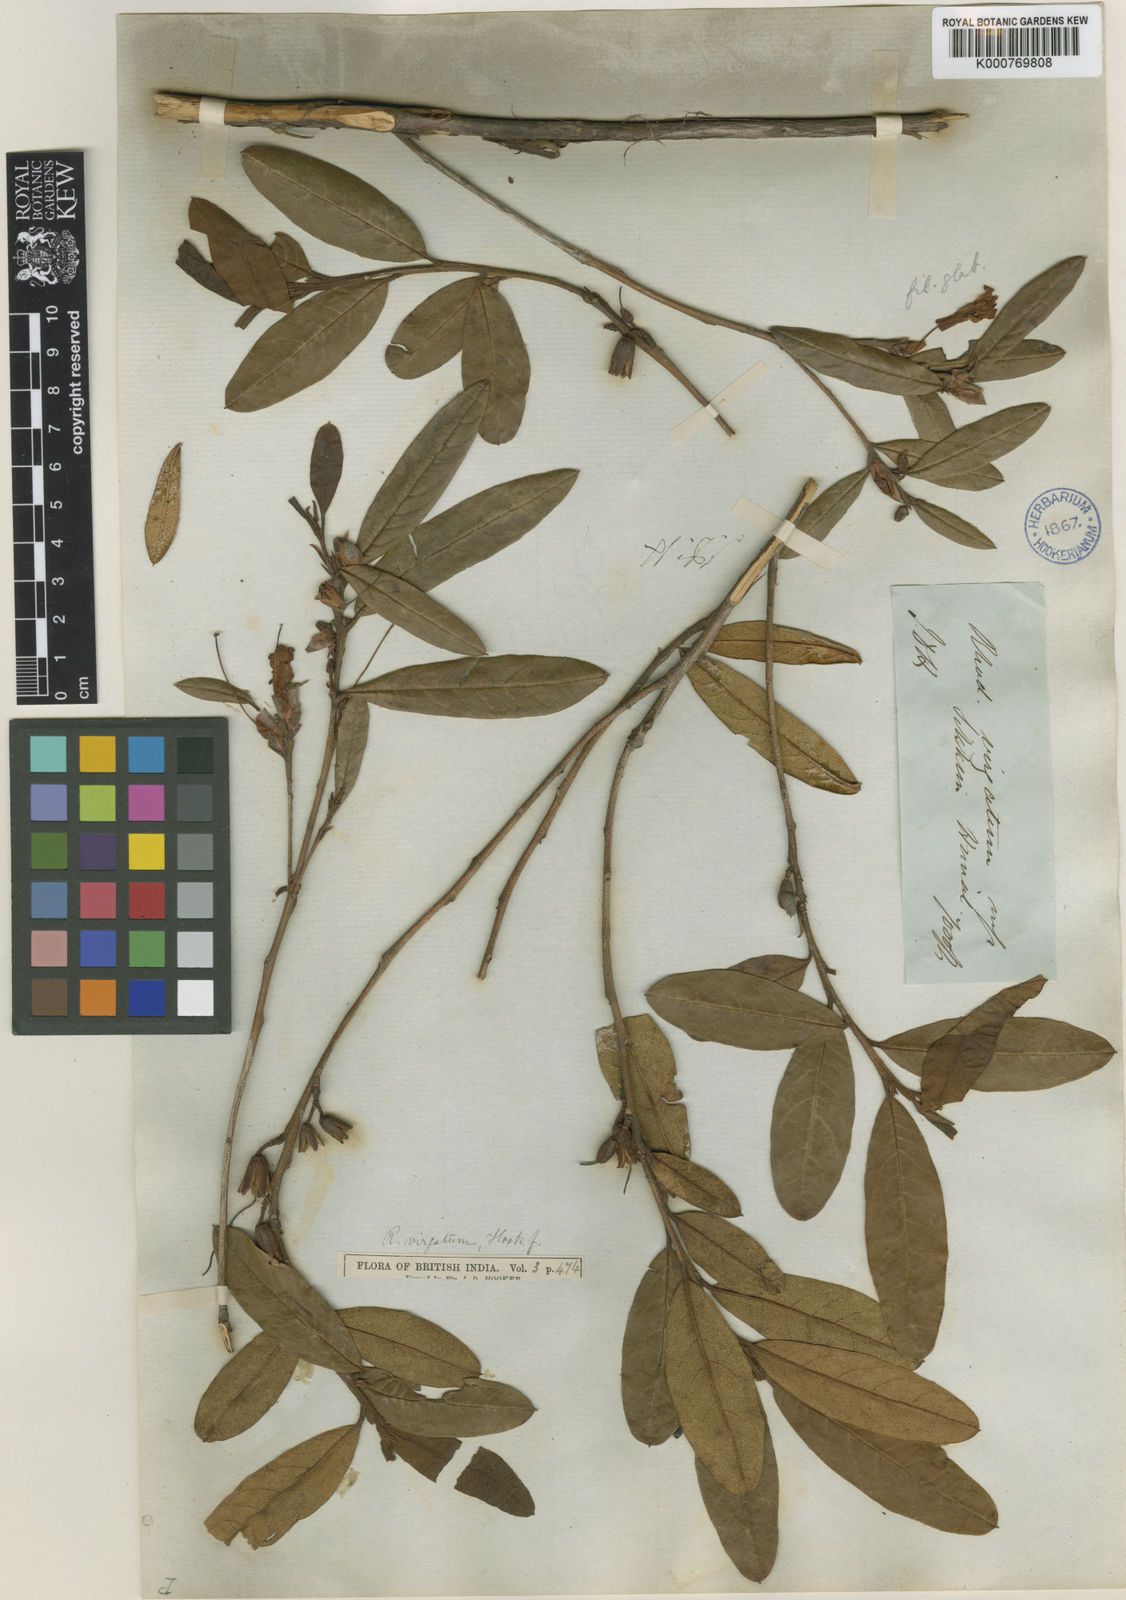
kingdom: Plantae
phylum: Tracheophyta
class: Magnoliopsida
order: Ericales
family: Ericaceae
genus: Rhododendron
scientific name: Rhododendron virgatum
